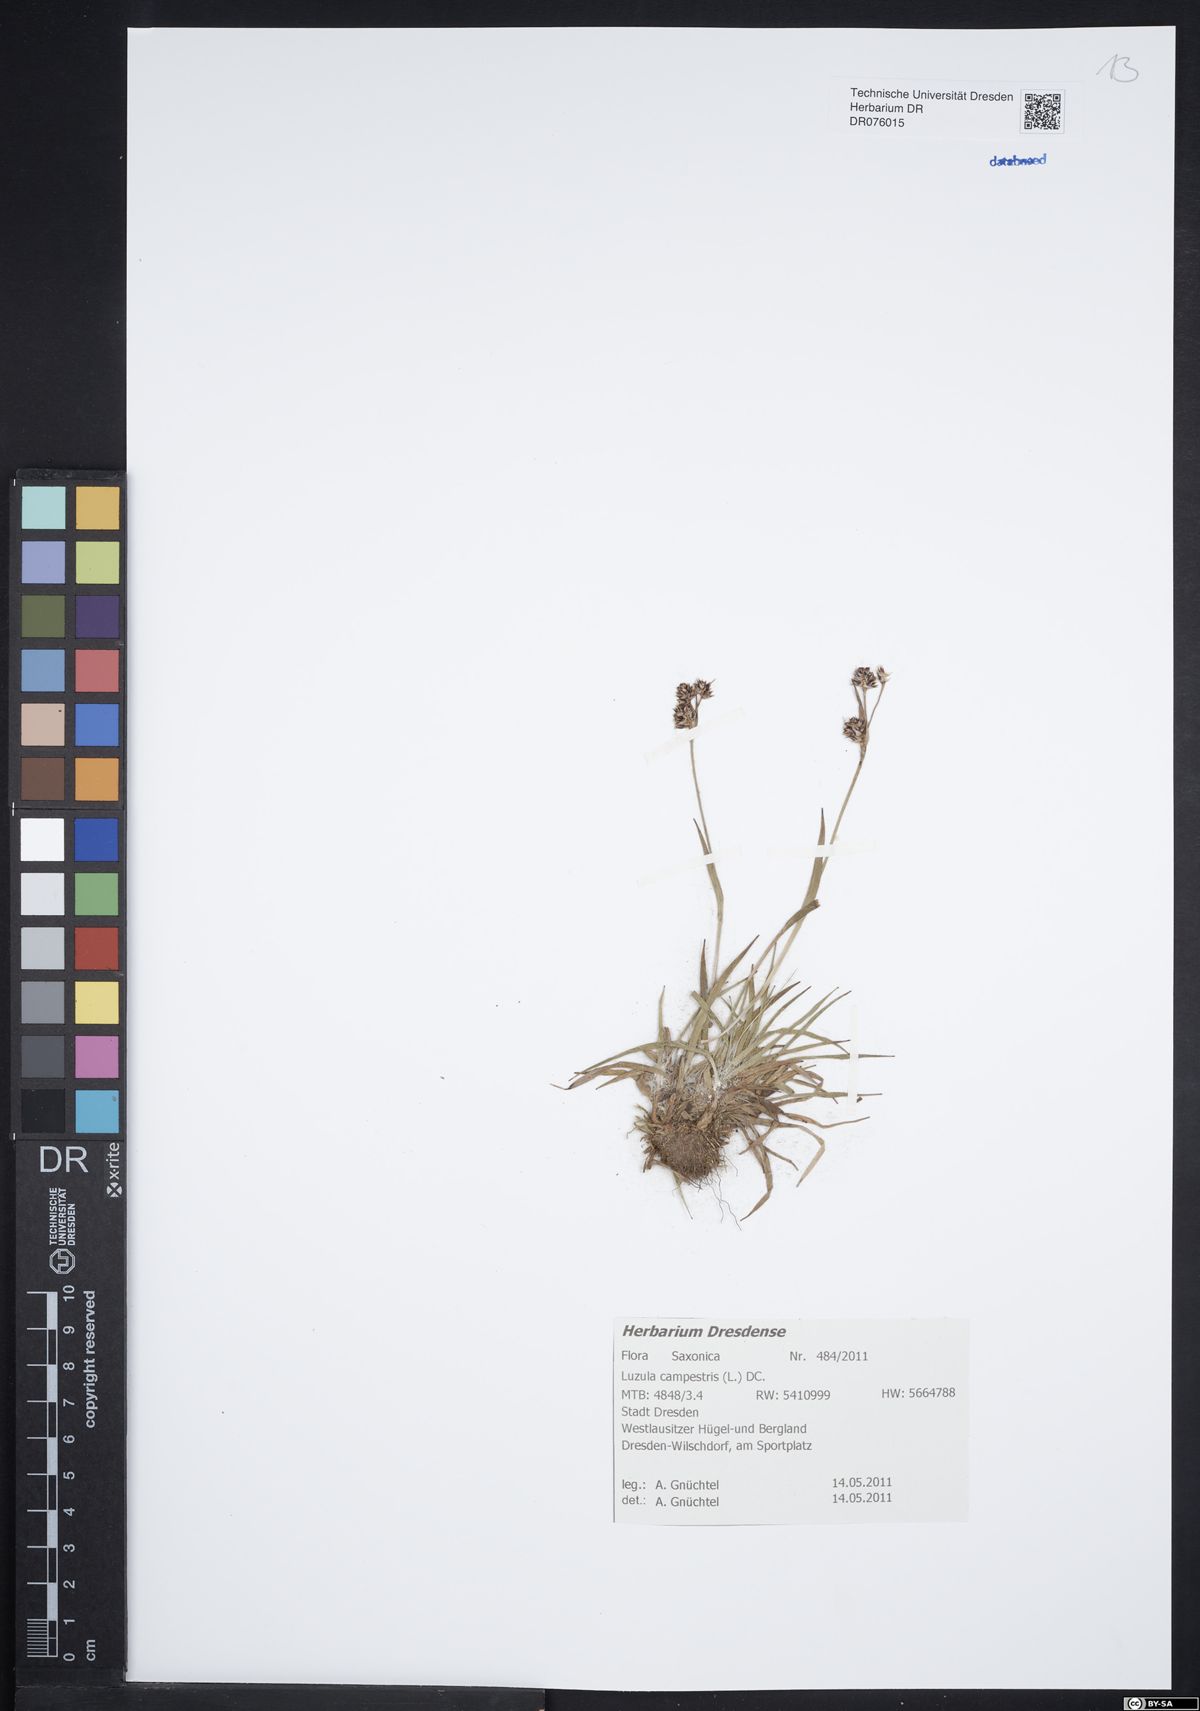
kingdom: Plantae
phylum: Tracheophyta
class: Liliopsida
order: Poales
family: Juncaceae
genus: Luzula
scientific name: Luzula campestris
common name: Field wood-rush
